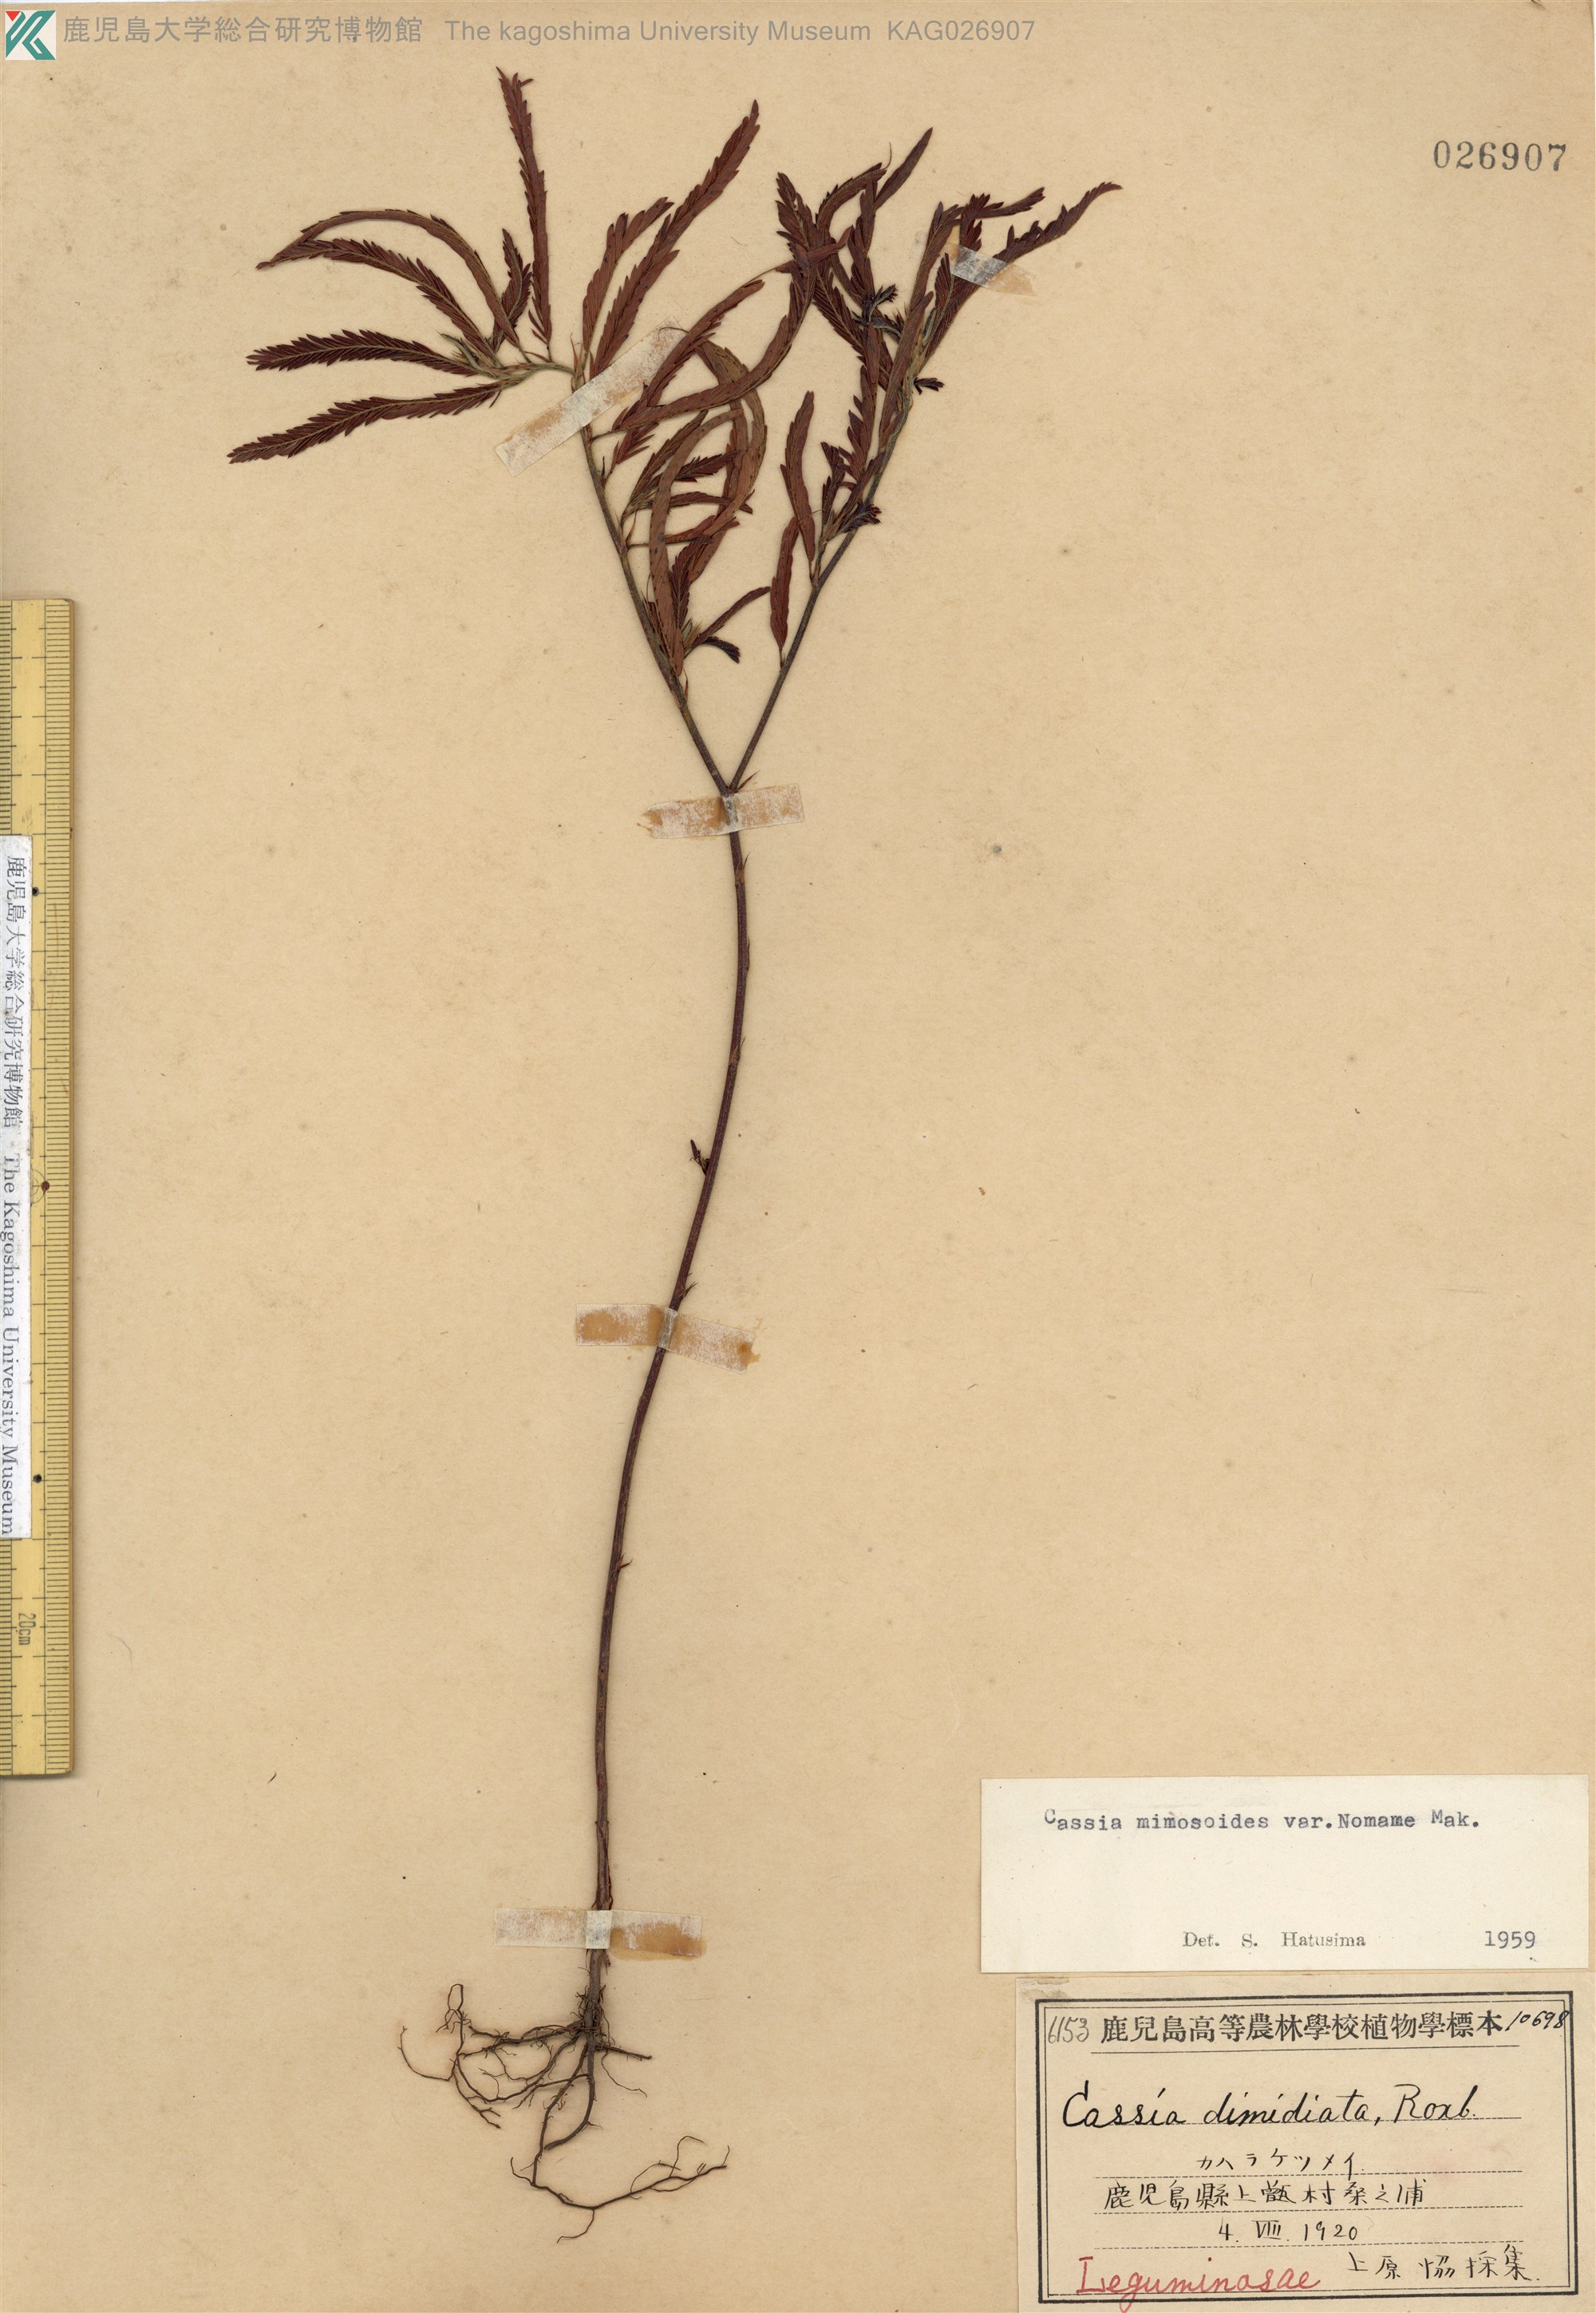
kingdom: Plantae
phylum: Tracheophyta
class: Magnoliopsida
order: Fabales
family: Fabaceae
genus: Chamaecrista
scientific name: Chamaecrista nomame
